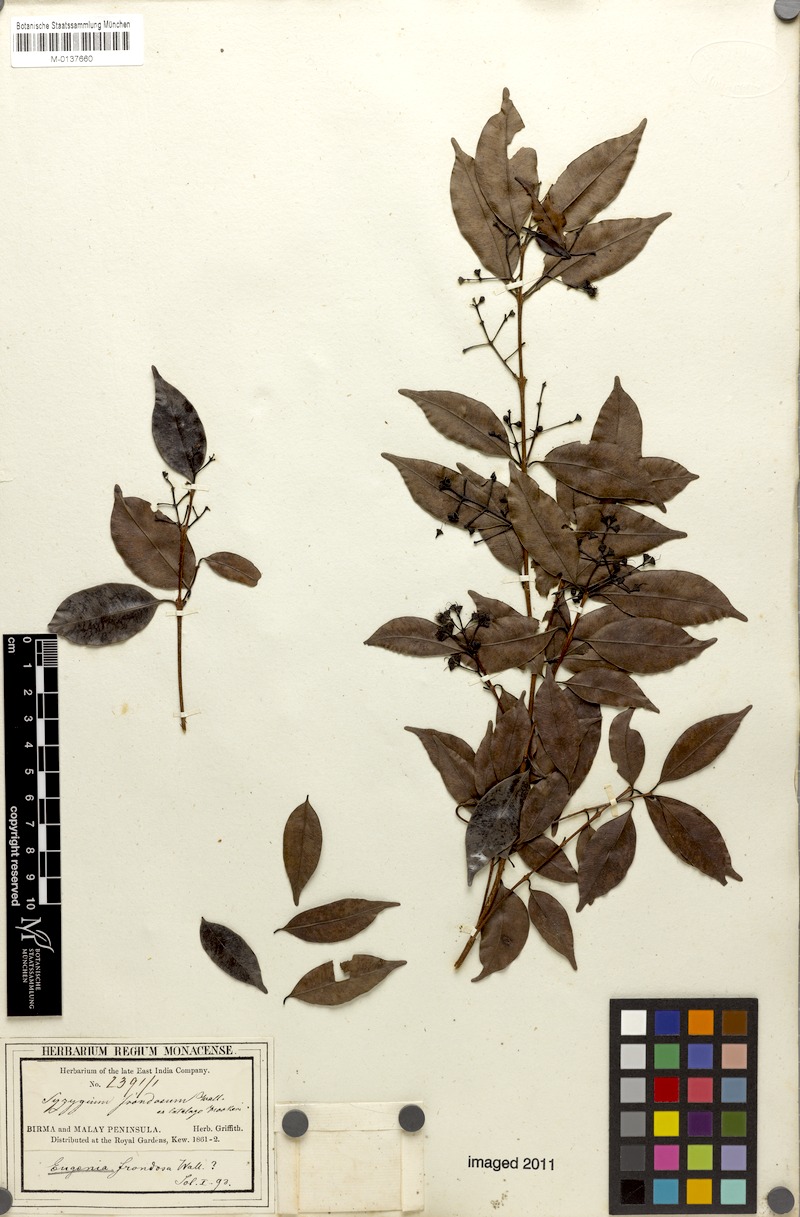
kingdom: Plantae
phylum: Tracheophyta
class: Magnoliopsida
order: Myrtales
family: Myrtaceae
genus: Syzygium
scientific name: Syzygium venosum
